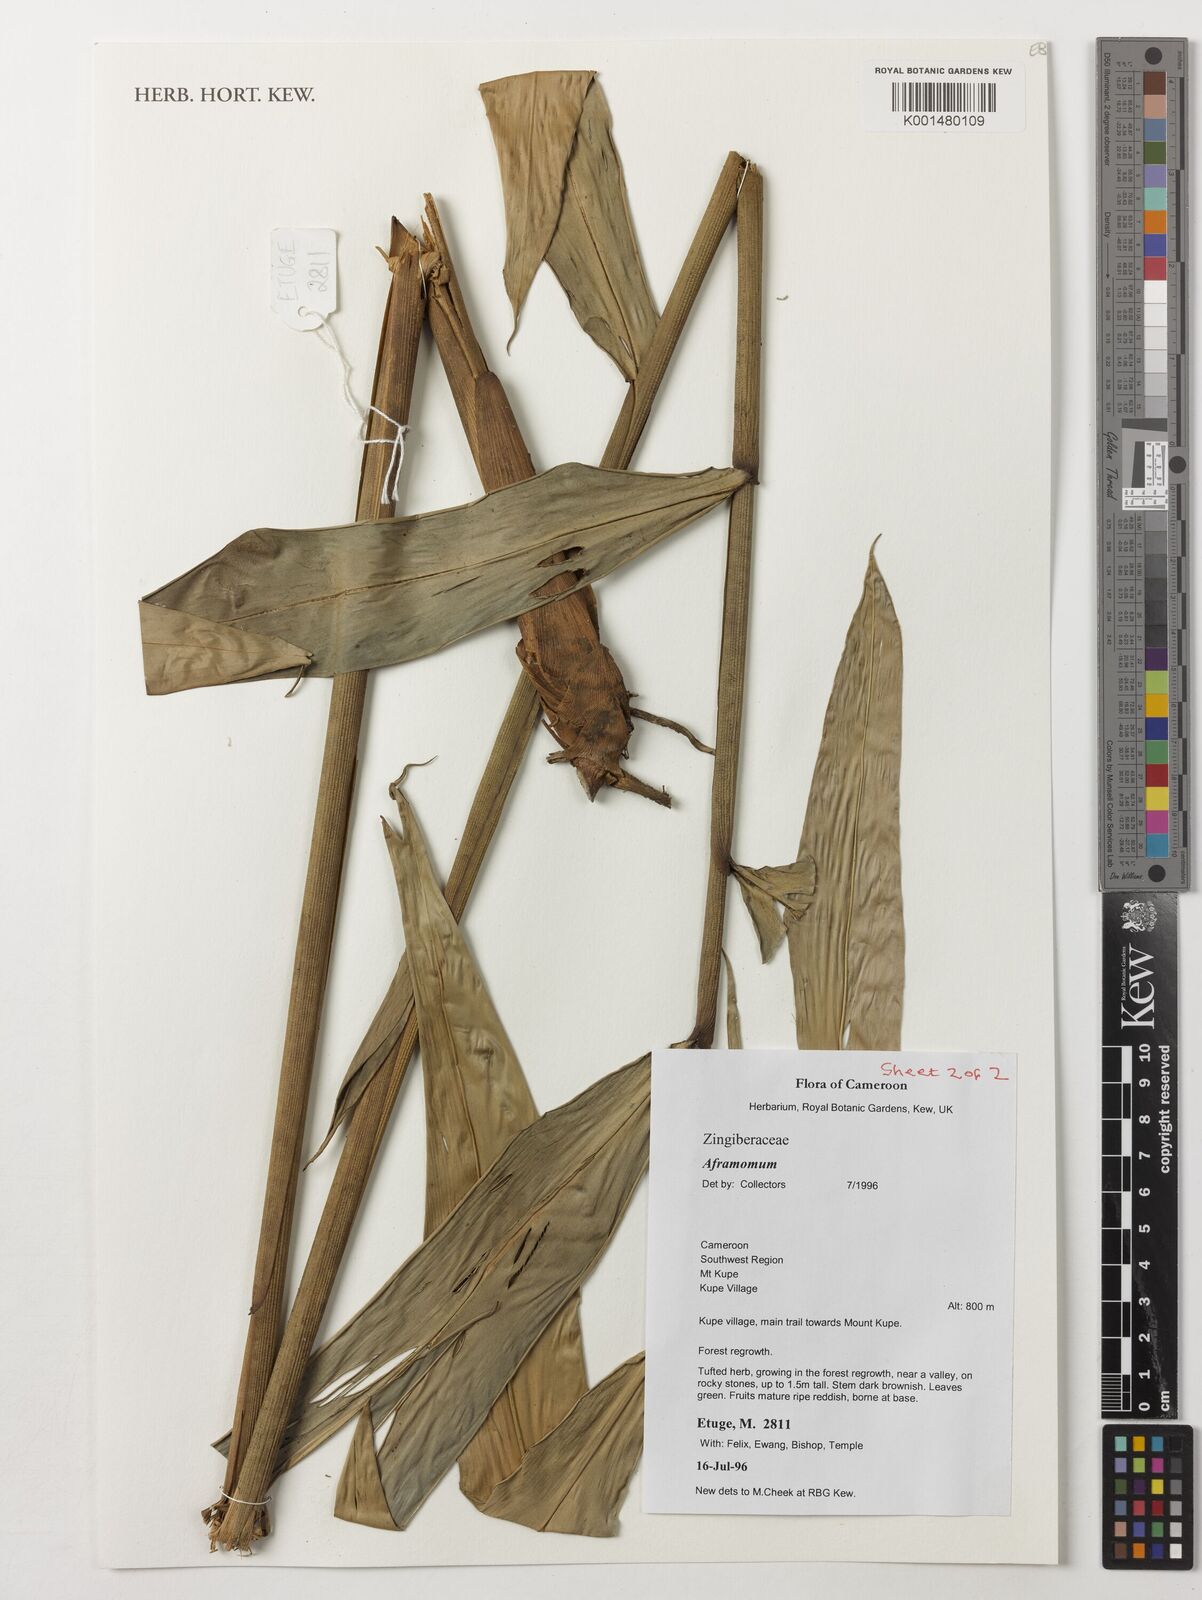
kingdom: Plantae
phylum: Tracheophyta
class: Liliopsida
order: Zingiberales
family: Zingiberaceae
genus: Aframomum
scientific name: Aframomum glaucophyllum
